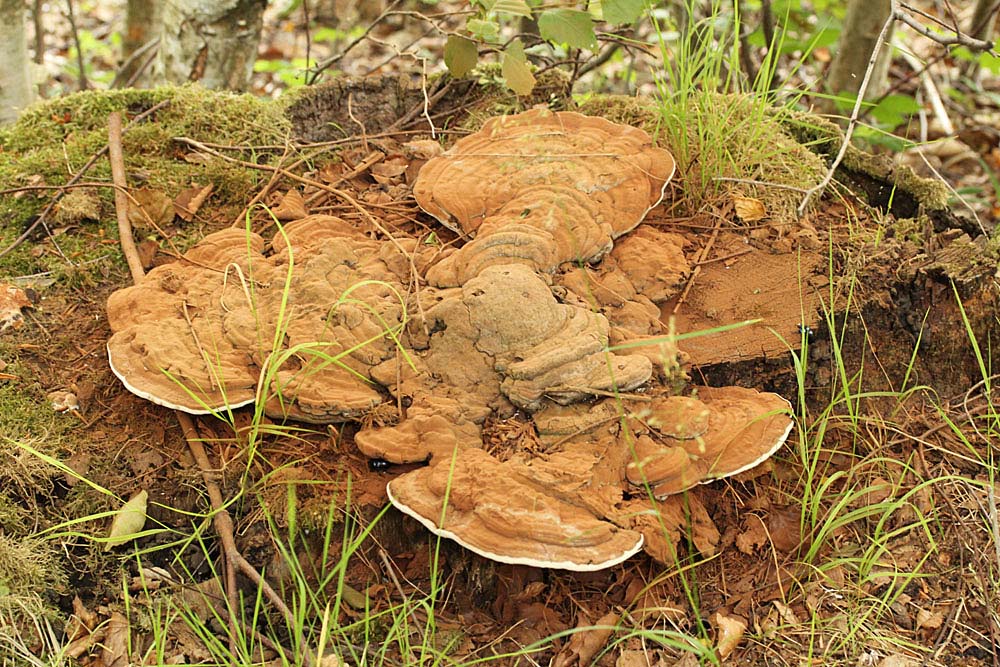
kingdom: Fungi
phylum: Basidiomycota
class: Agaricomycetes
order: Polyporales
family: Polyporaceae
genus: Ganoderma
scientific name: Ganoderma applanatum
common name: flad lakporesvamp
